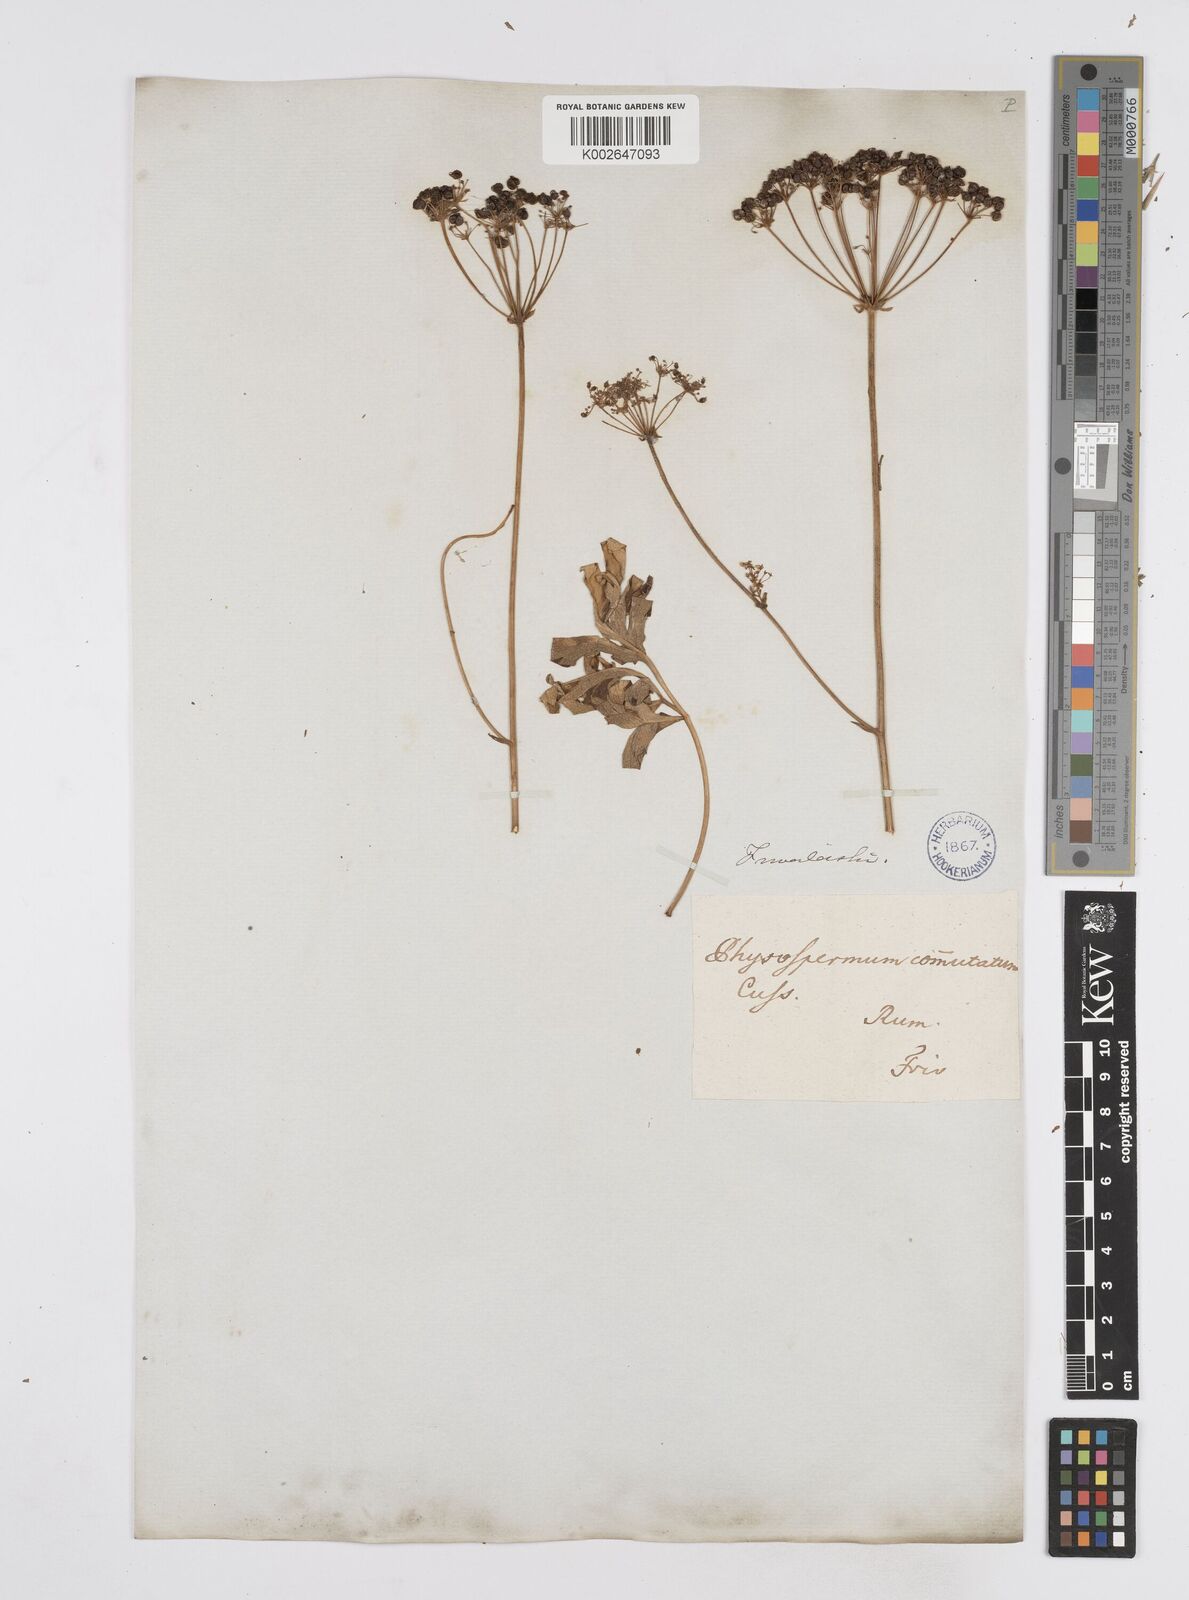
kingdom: Plantae
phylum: Tracheophyta
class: Magnoliopsida
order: Apiales
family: Apiaceae
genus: Physospermum
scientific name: Physospermum cornubiense
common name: Bladderseed
